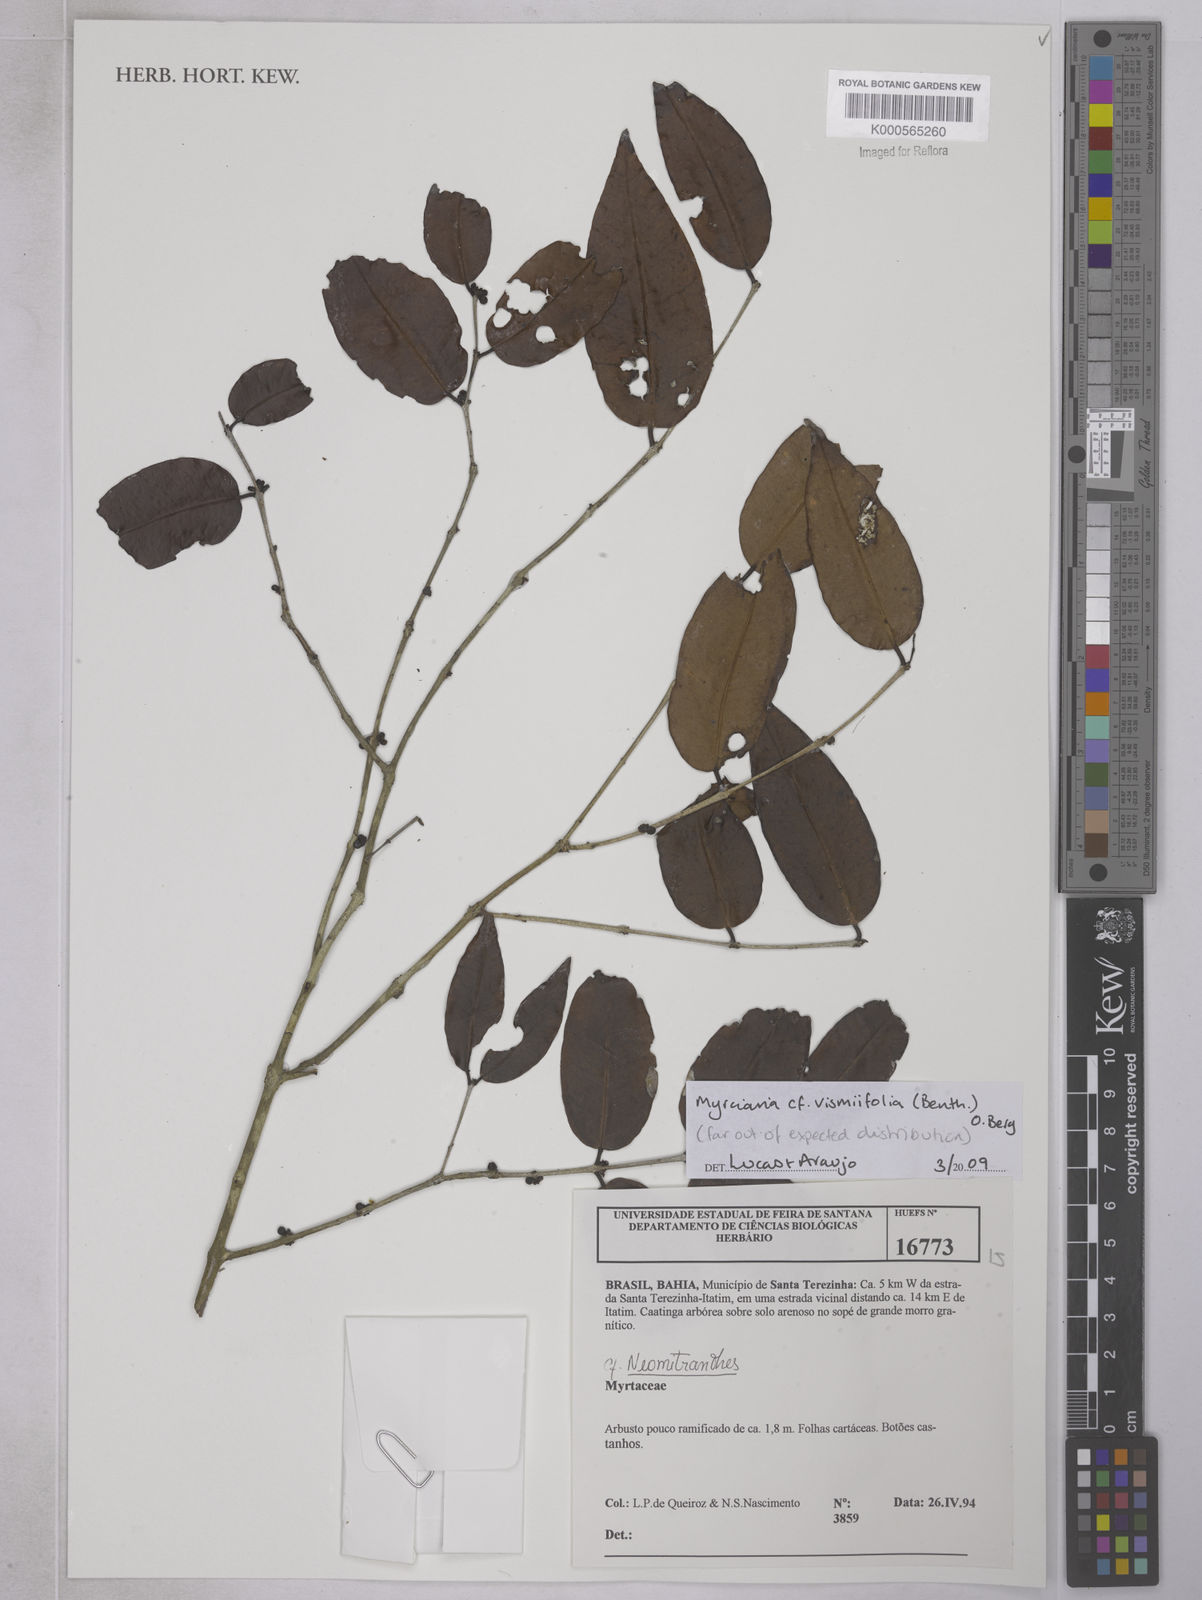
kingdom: Plantae
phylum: Tracheophyta
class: Magnoliopsida
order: Myrtales
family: Myrtaceae
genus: Myrciaria
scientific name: Myrciaria
